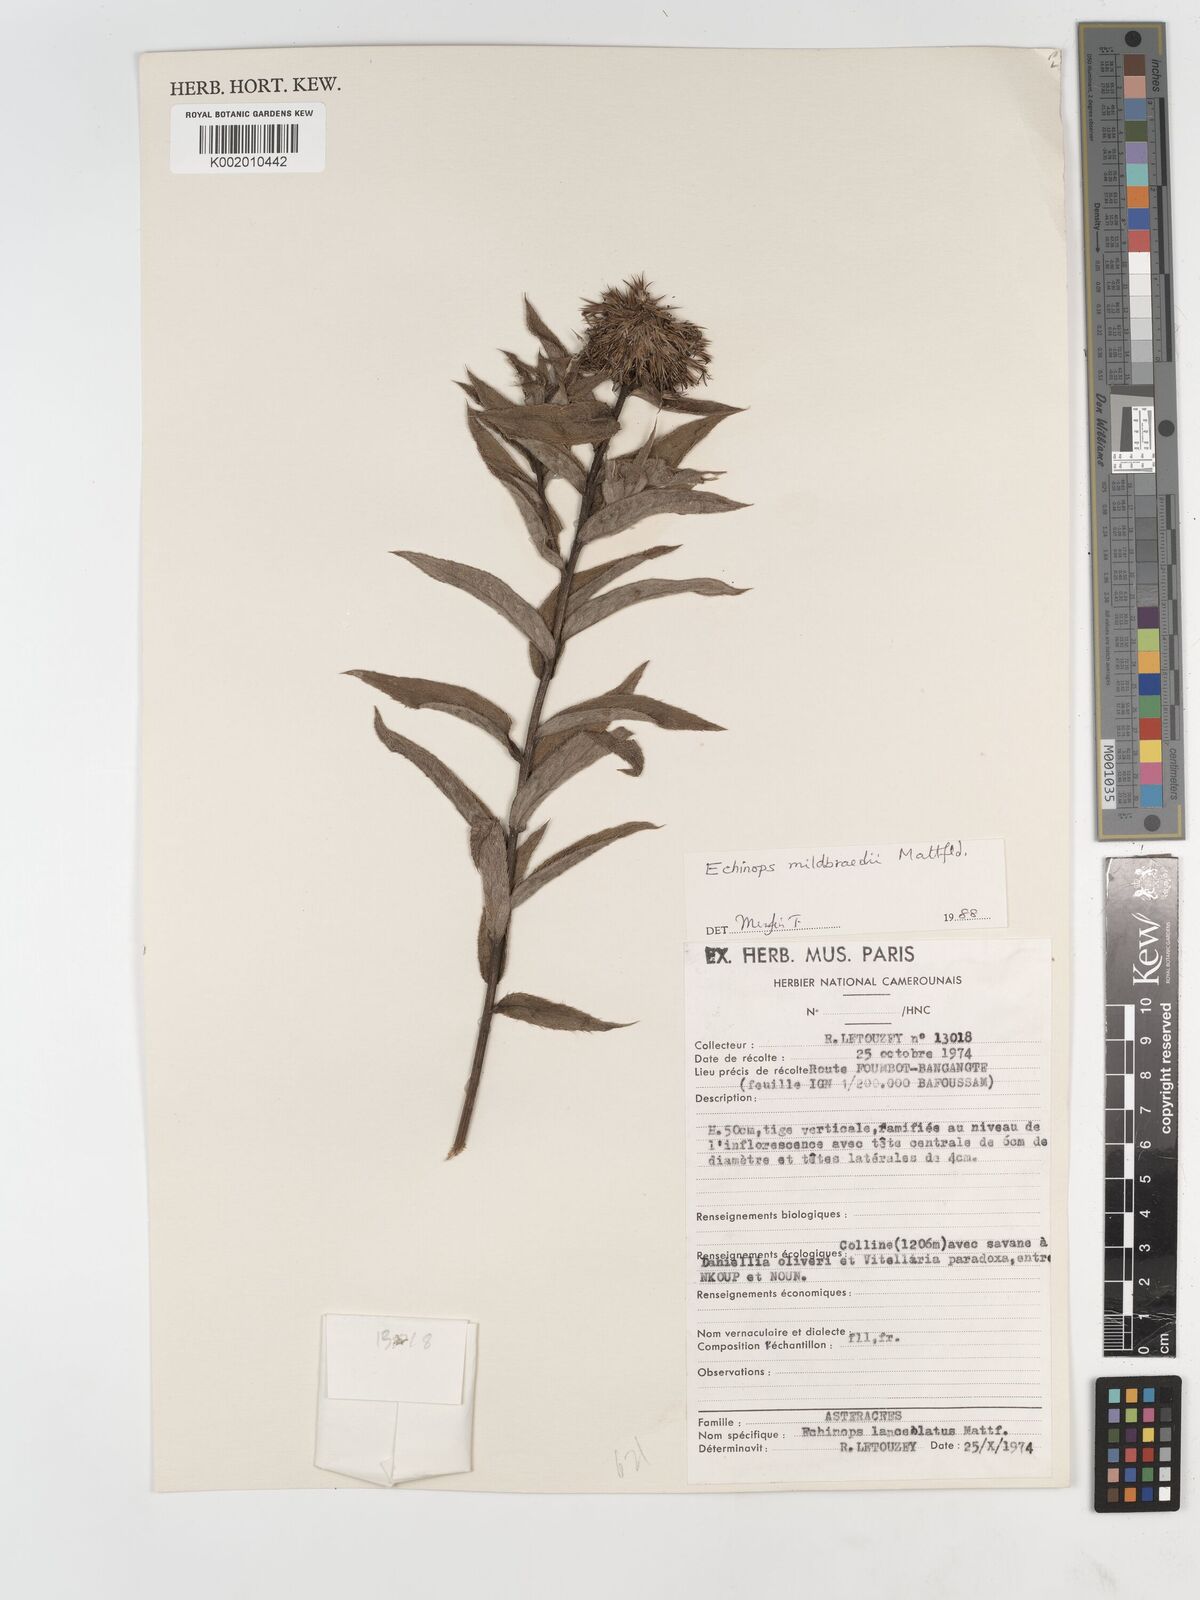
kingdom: Plantae
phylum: Tracheophyta
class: Magnoliopsida
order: Asterales
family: Asteraceae
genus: Echinops
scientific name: Echinops mildbraedii
